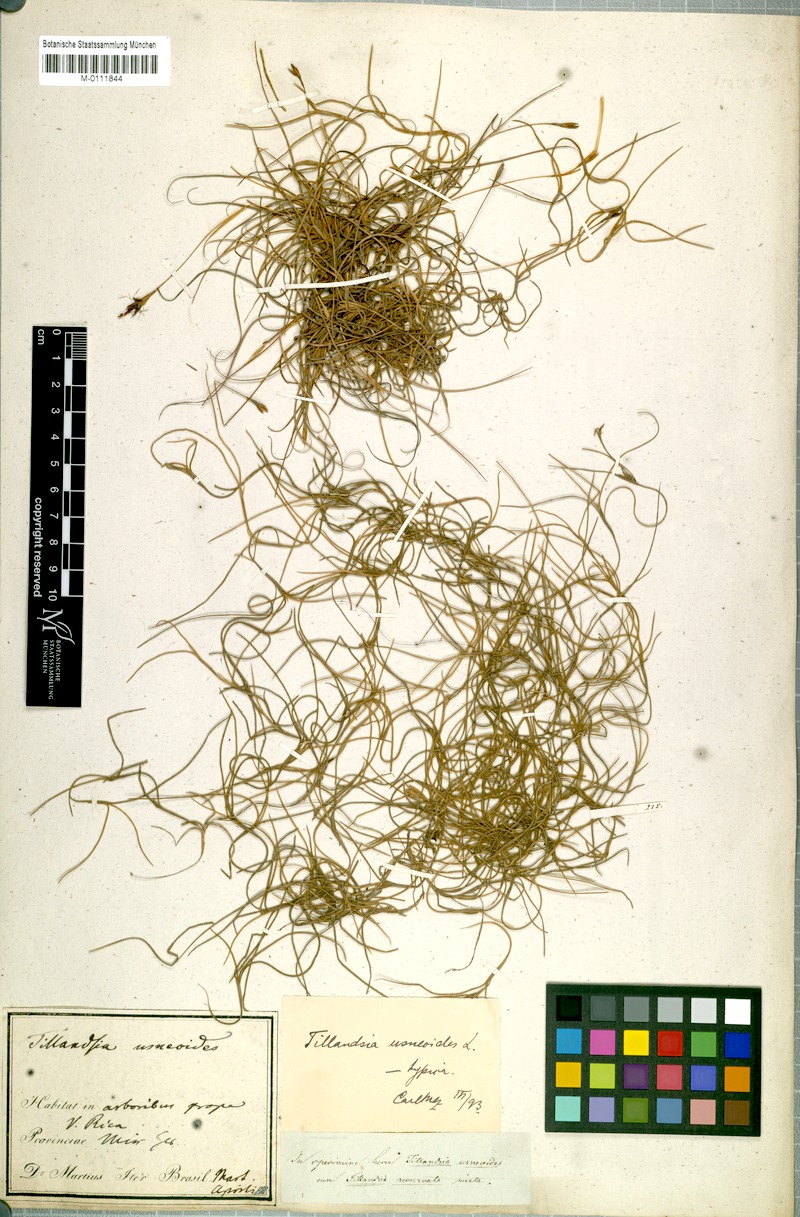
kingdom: Plantae
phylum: Tracheophyta
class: Liliopsida
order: Poales
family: Bromeliaceae
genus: Tillandsia
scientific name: Tillandsia usneoides
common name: Spanish moss
